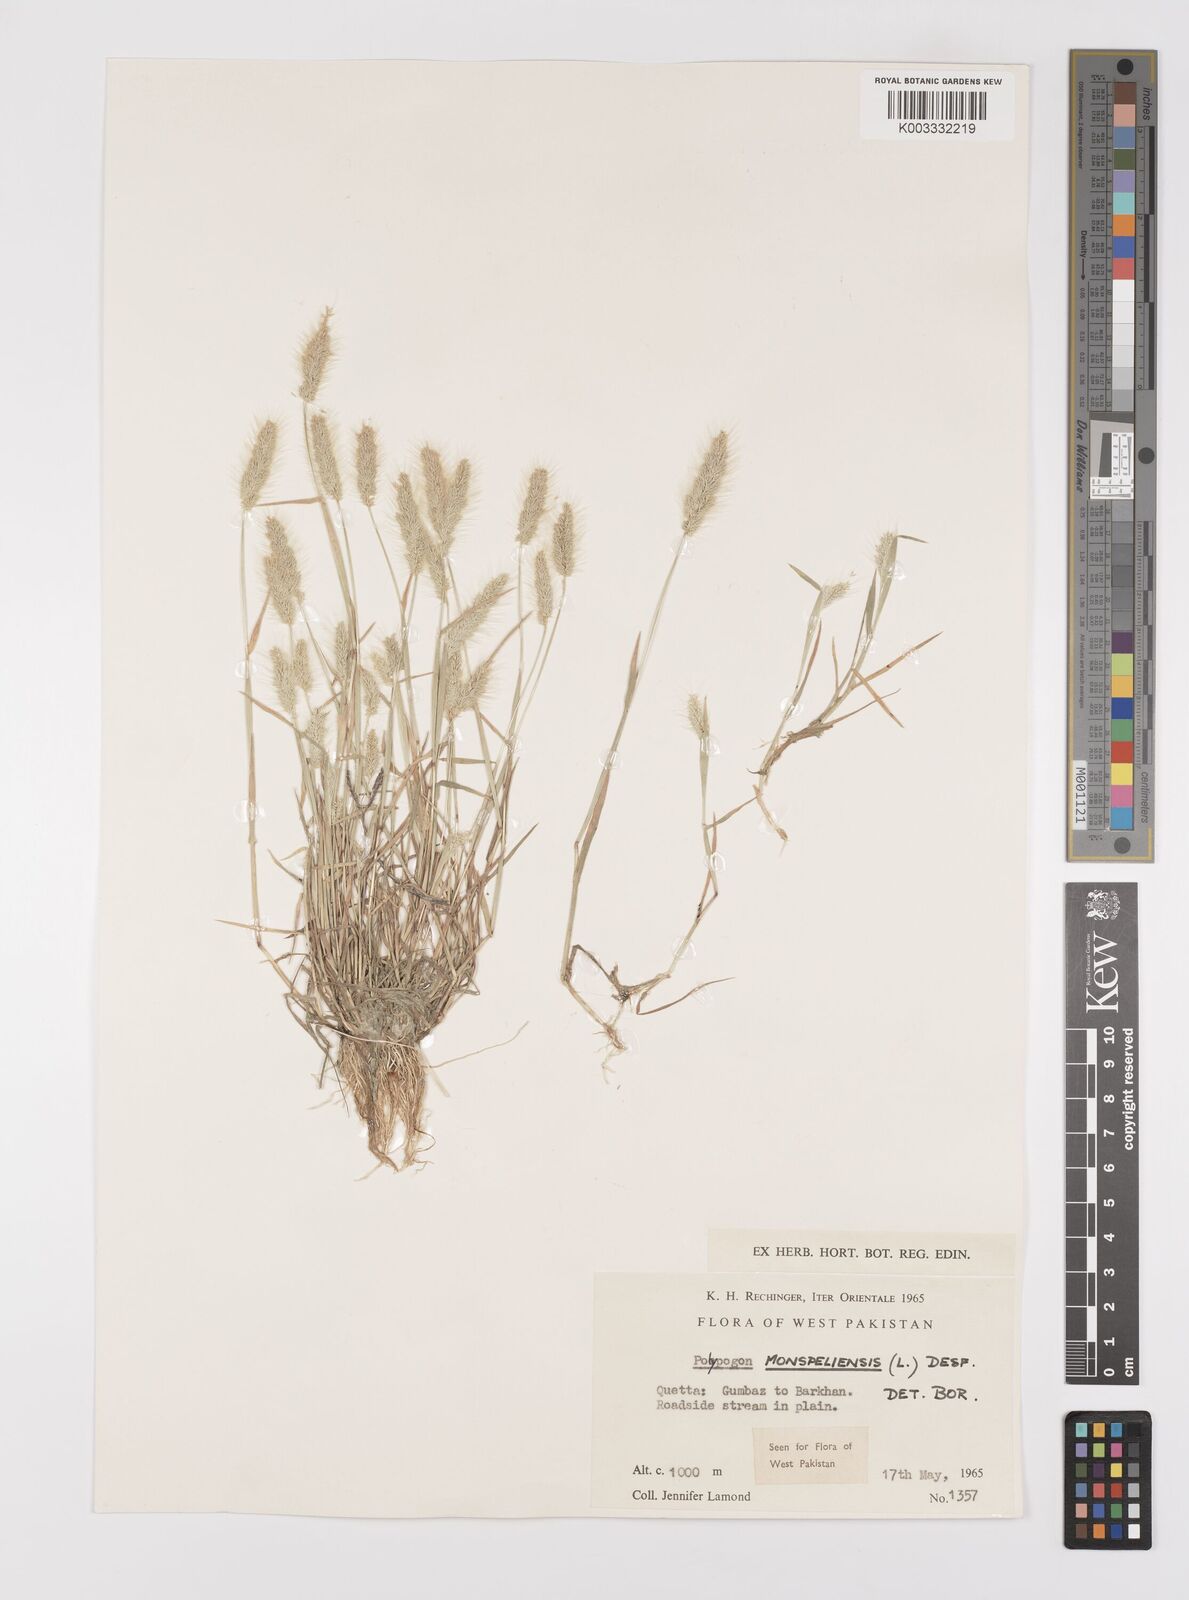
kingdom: Plantae
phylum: Tracheophyta
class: Liliopsida
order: Poales
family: Poaceae
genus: Polypogon
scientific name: Polypogon monspeliensis
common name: Annual rabbitsfoot grass
